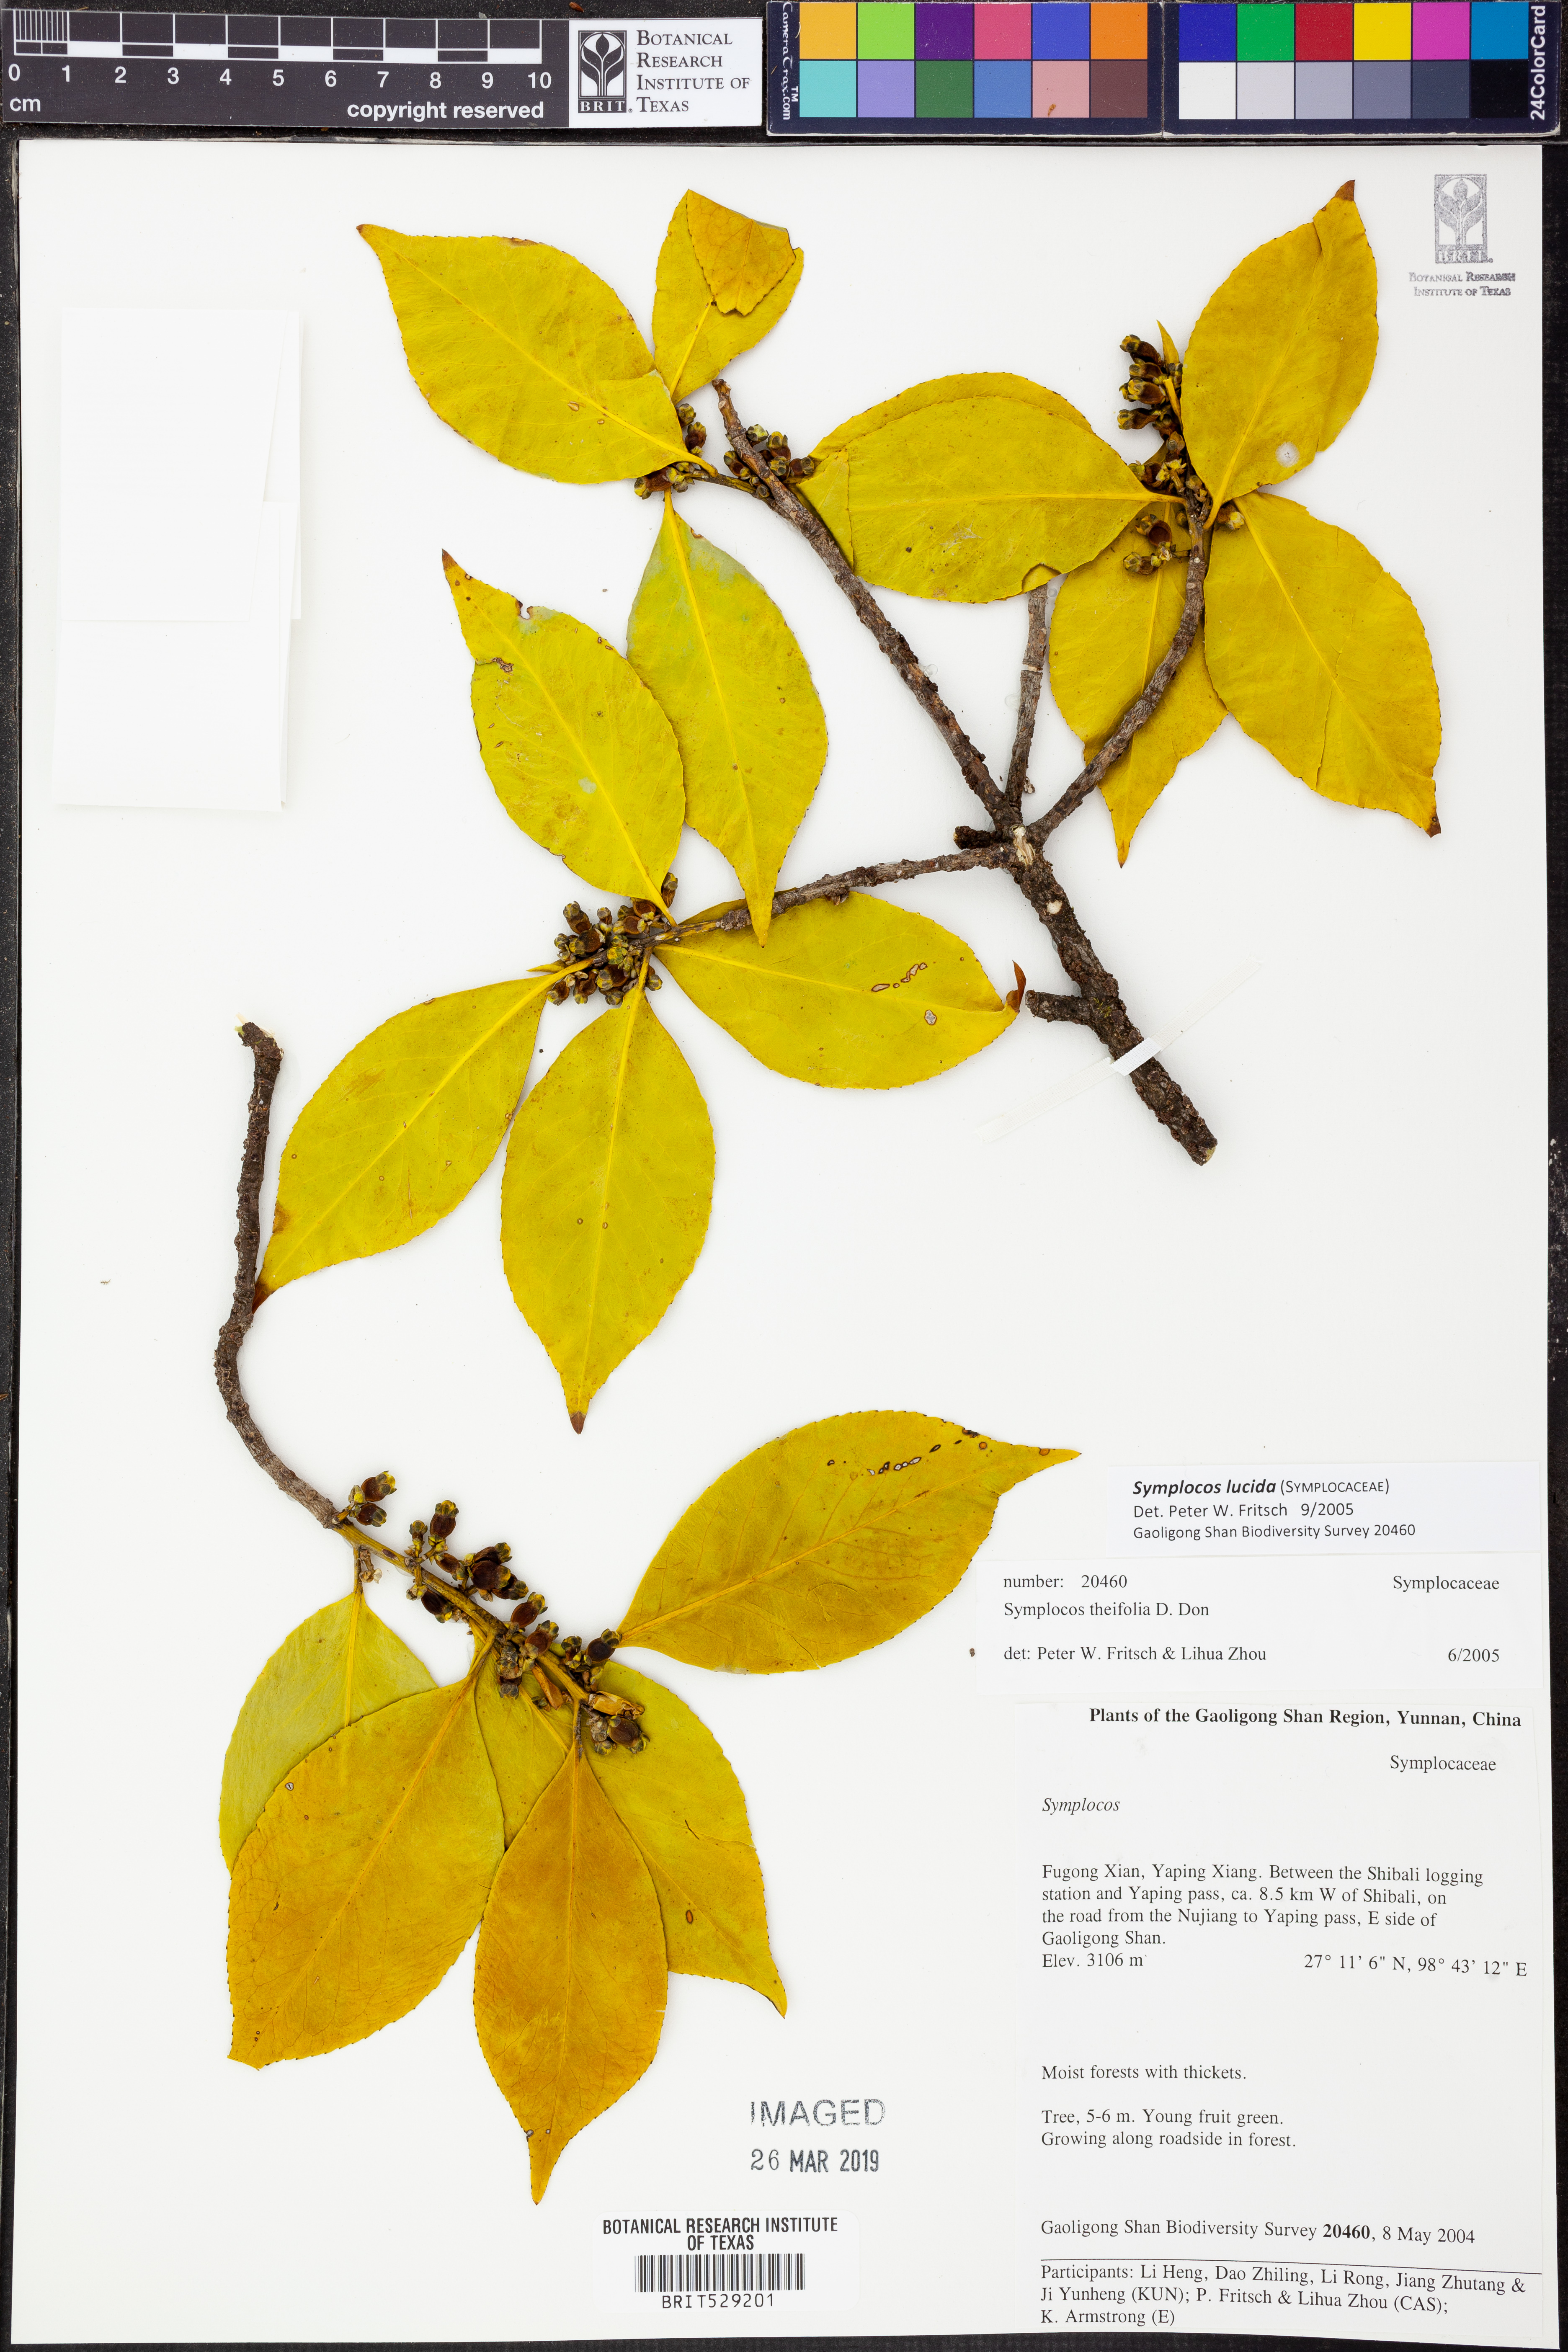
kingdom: Plantae
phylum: Tracheophyta
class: Magnoliopsida
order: Ericales
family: Symplocaceae
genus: Symplocos
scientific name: Symplocos nakaharae
